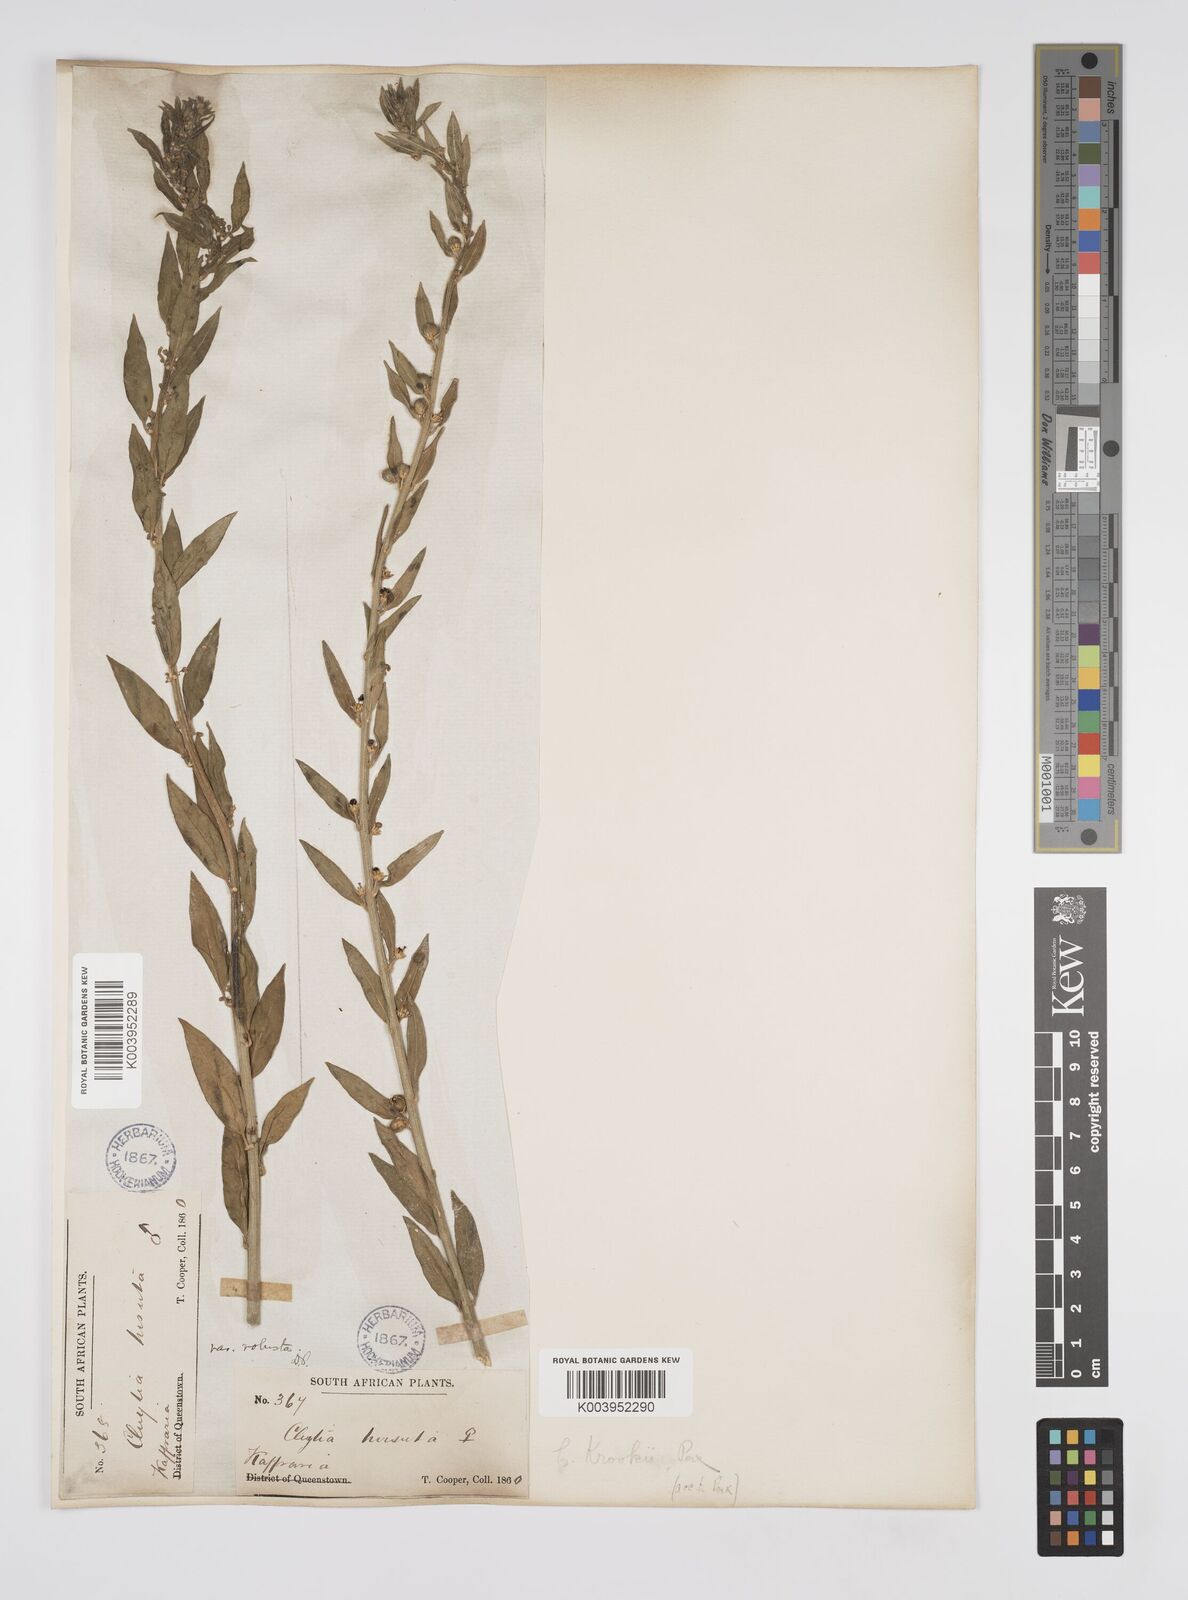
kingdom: Plantae
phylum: Tracheophyta
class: Magnoliopsida
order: Malpighiales
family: Peraceae
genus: Clutia
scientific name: Clutia hirsuta
